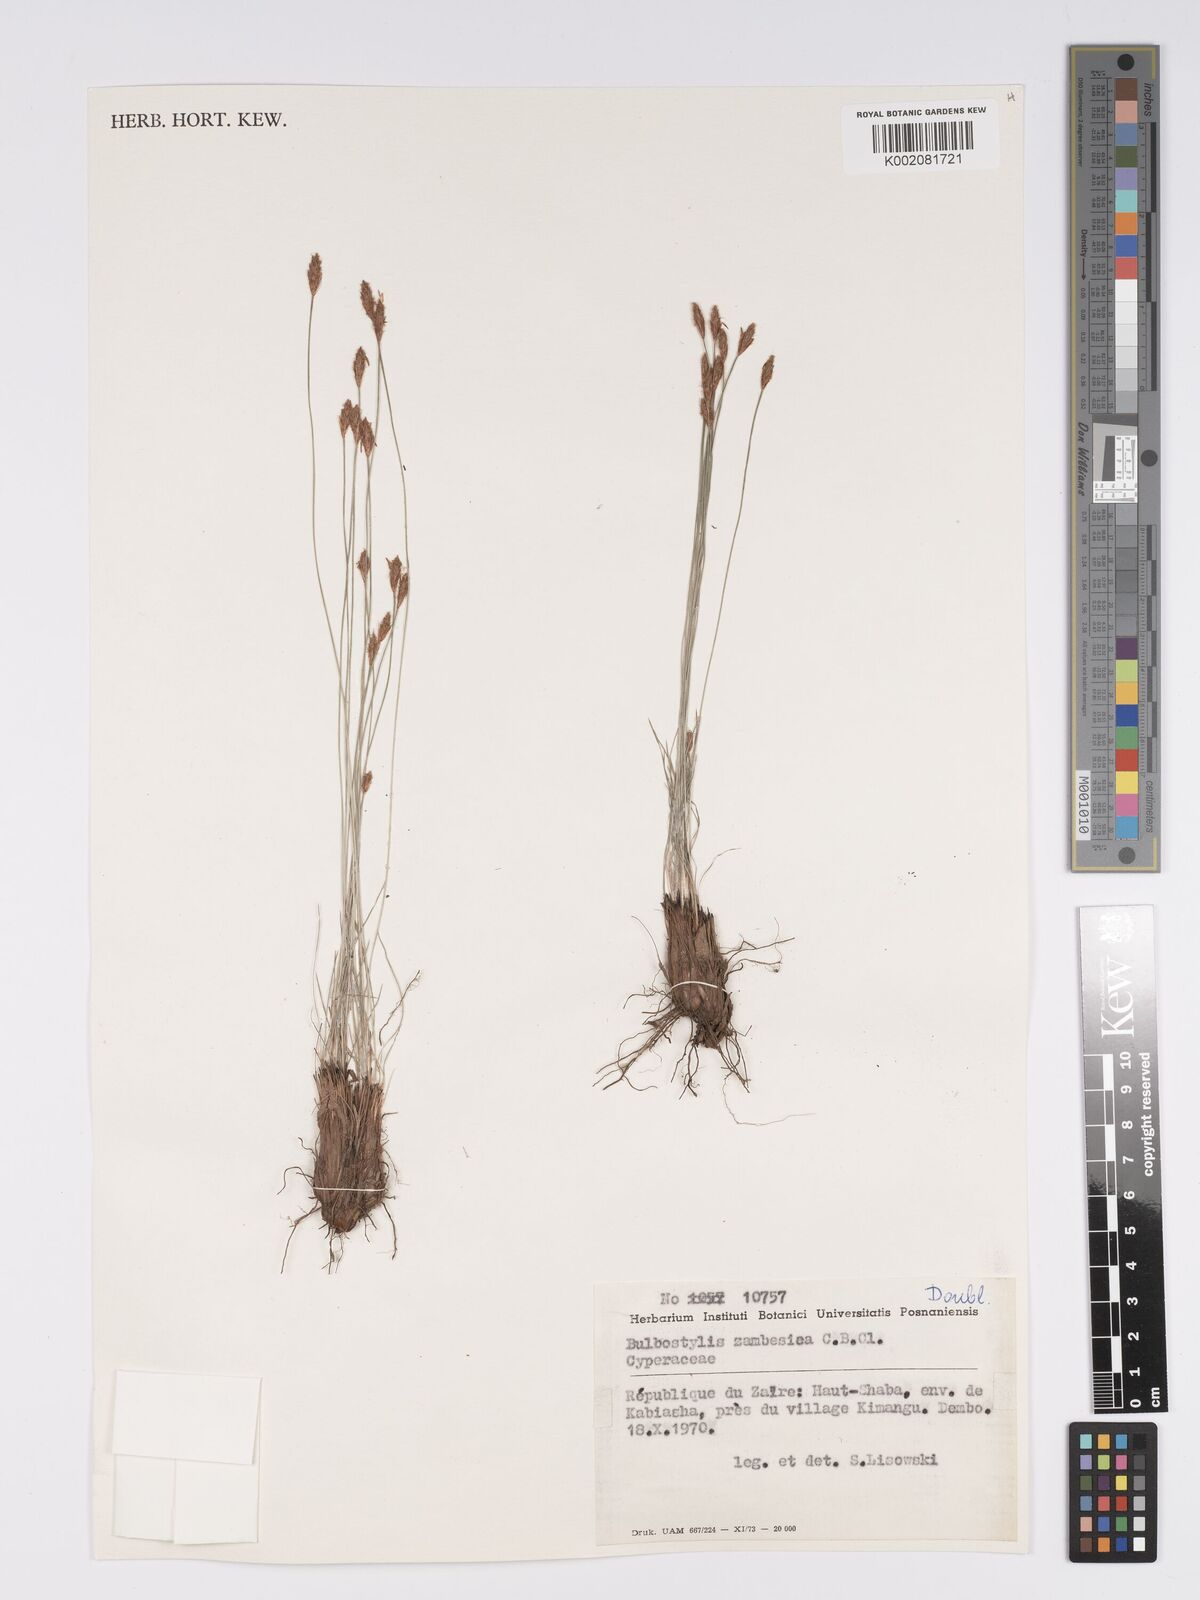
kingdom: Plantae
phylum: Tracheophyta
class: Liliopsida
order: Poales
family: Cyperaceae
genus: Bulbostylis
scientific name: Bulbostylis macra
